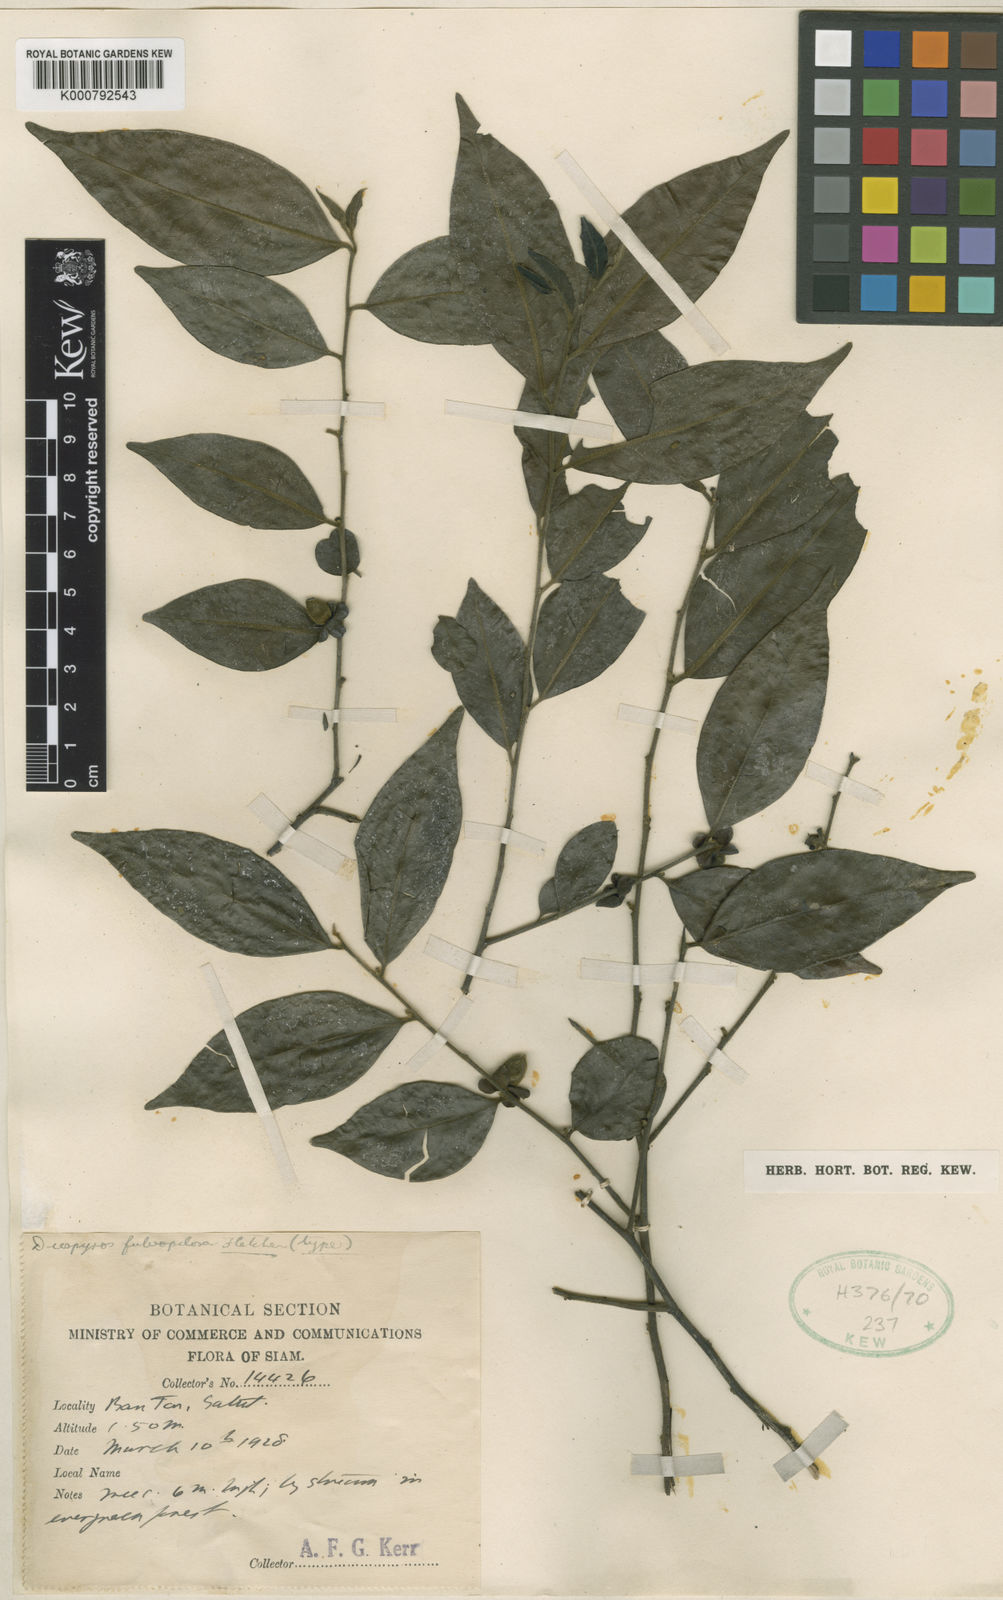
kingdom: Plantae
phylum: Tracheophyta
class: Magnoliopsida
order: Ericales
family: Ebenaceae
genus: Diospyros
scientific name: Diospyros kurzii
